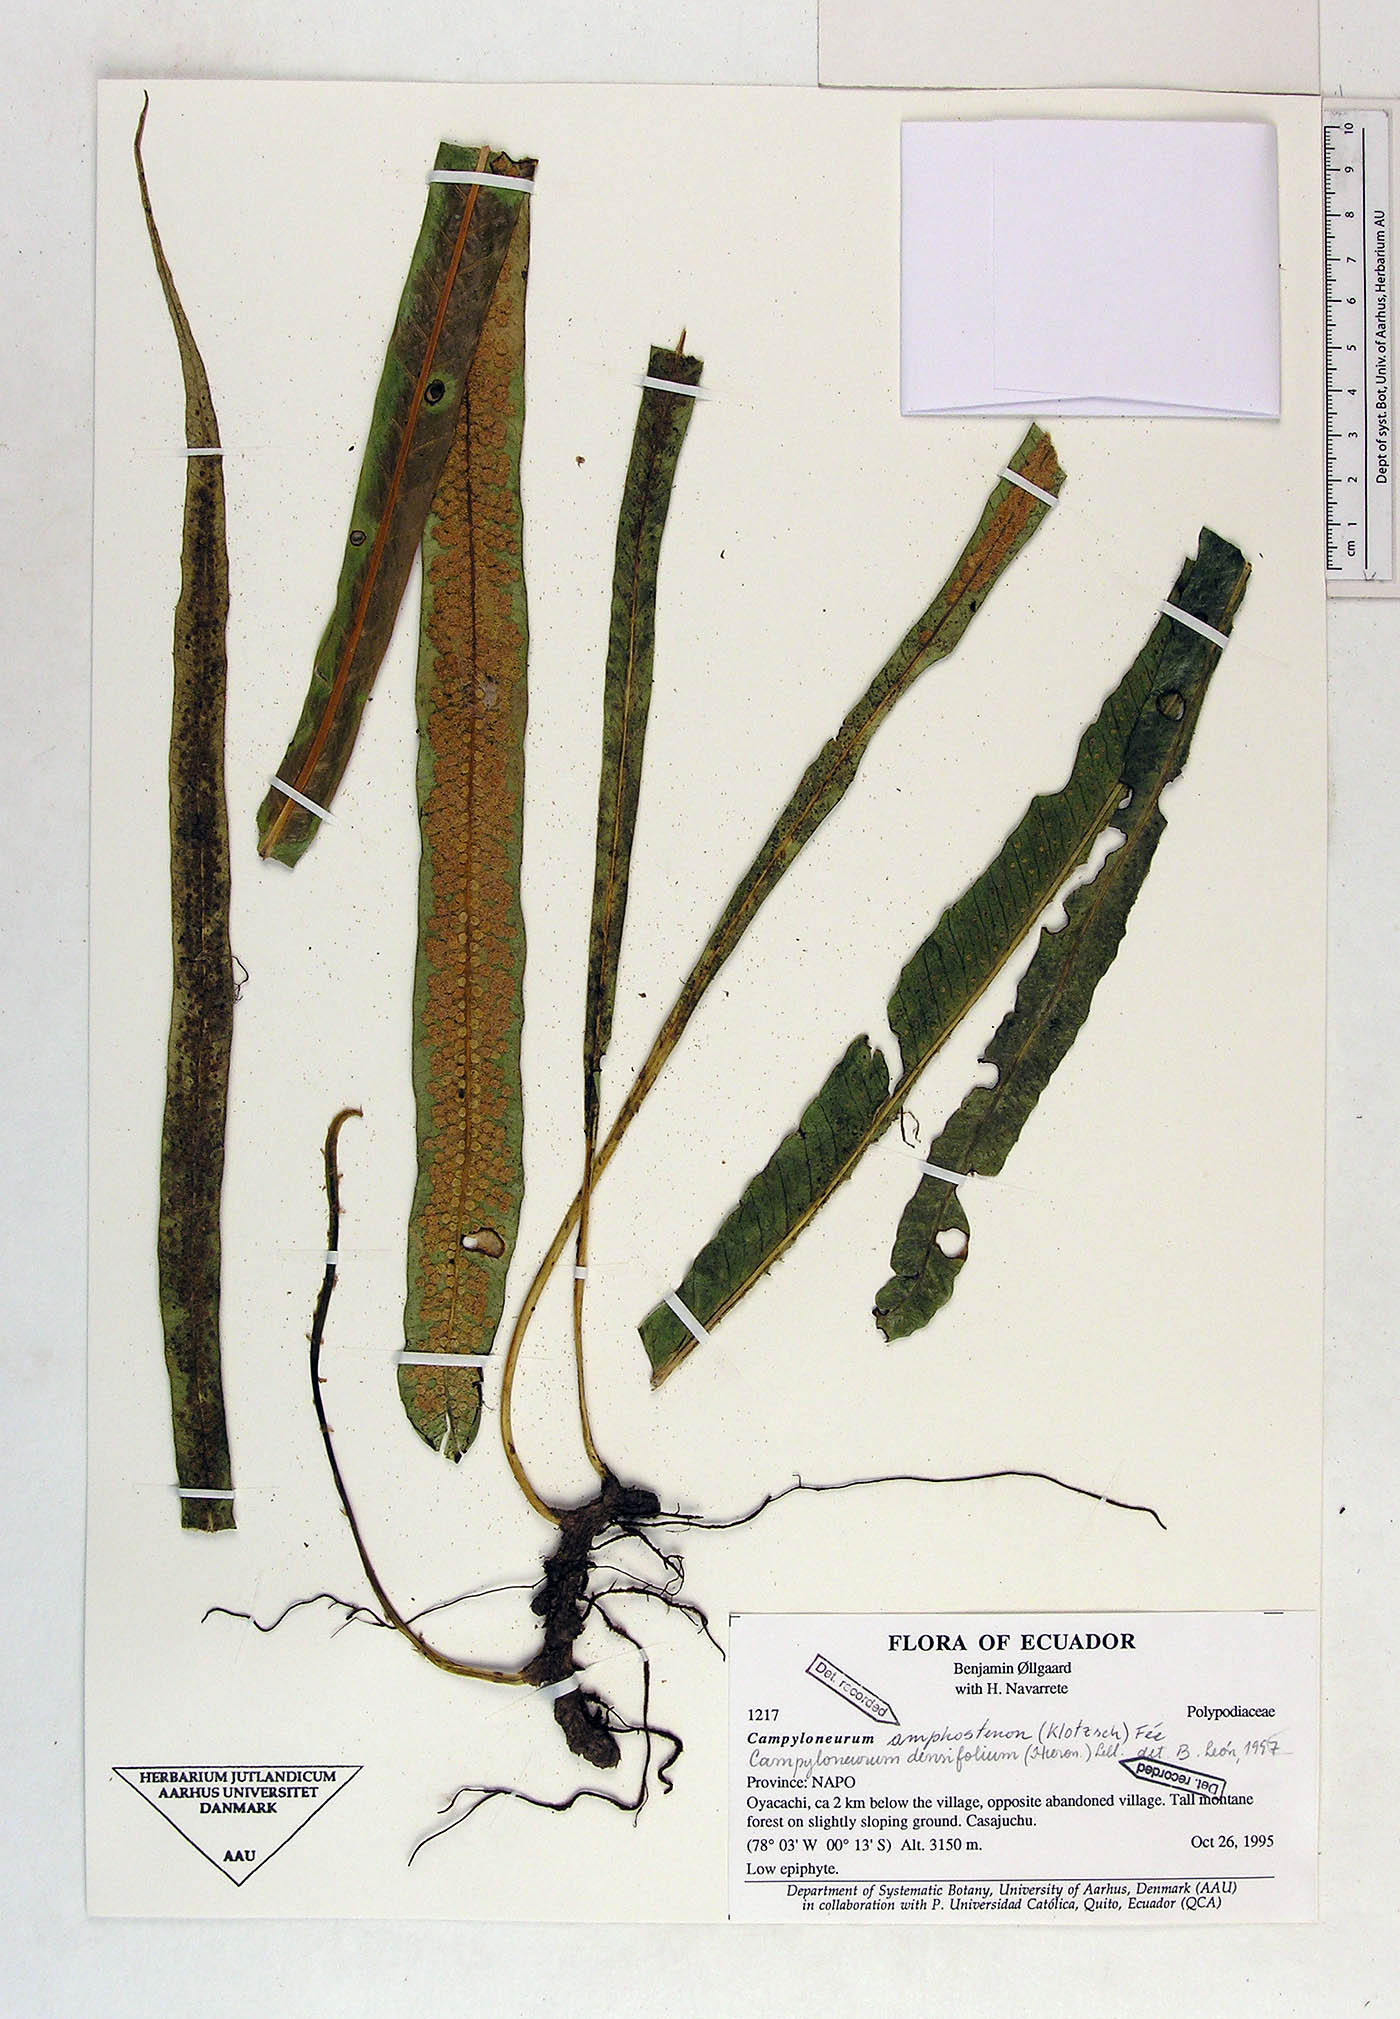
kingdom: Plantae
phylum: Tracheophyta
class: Polypodiopsida
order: Polypodiales
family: Polypodiaceae
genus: Campyloneurum
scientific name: Campyloneurum densifolium
